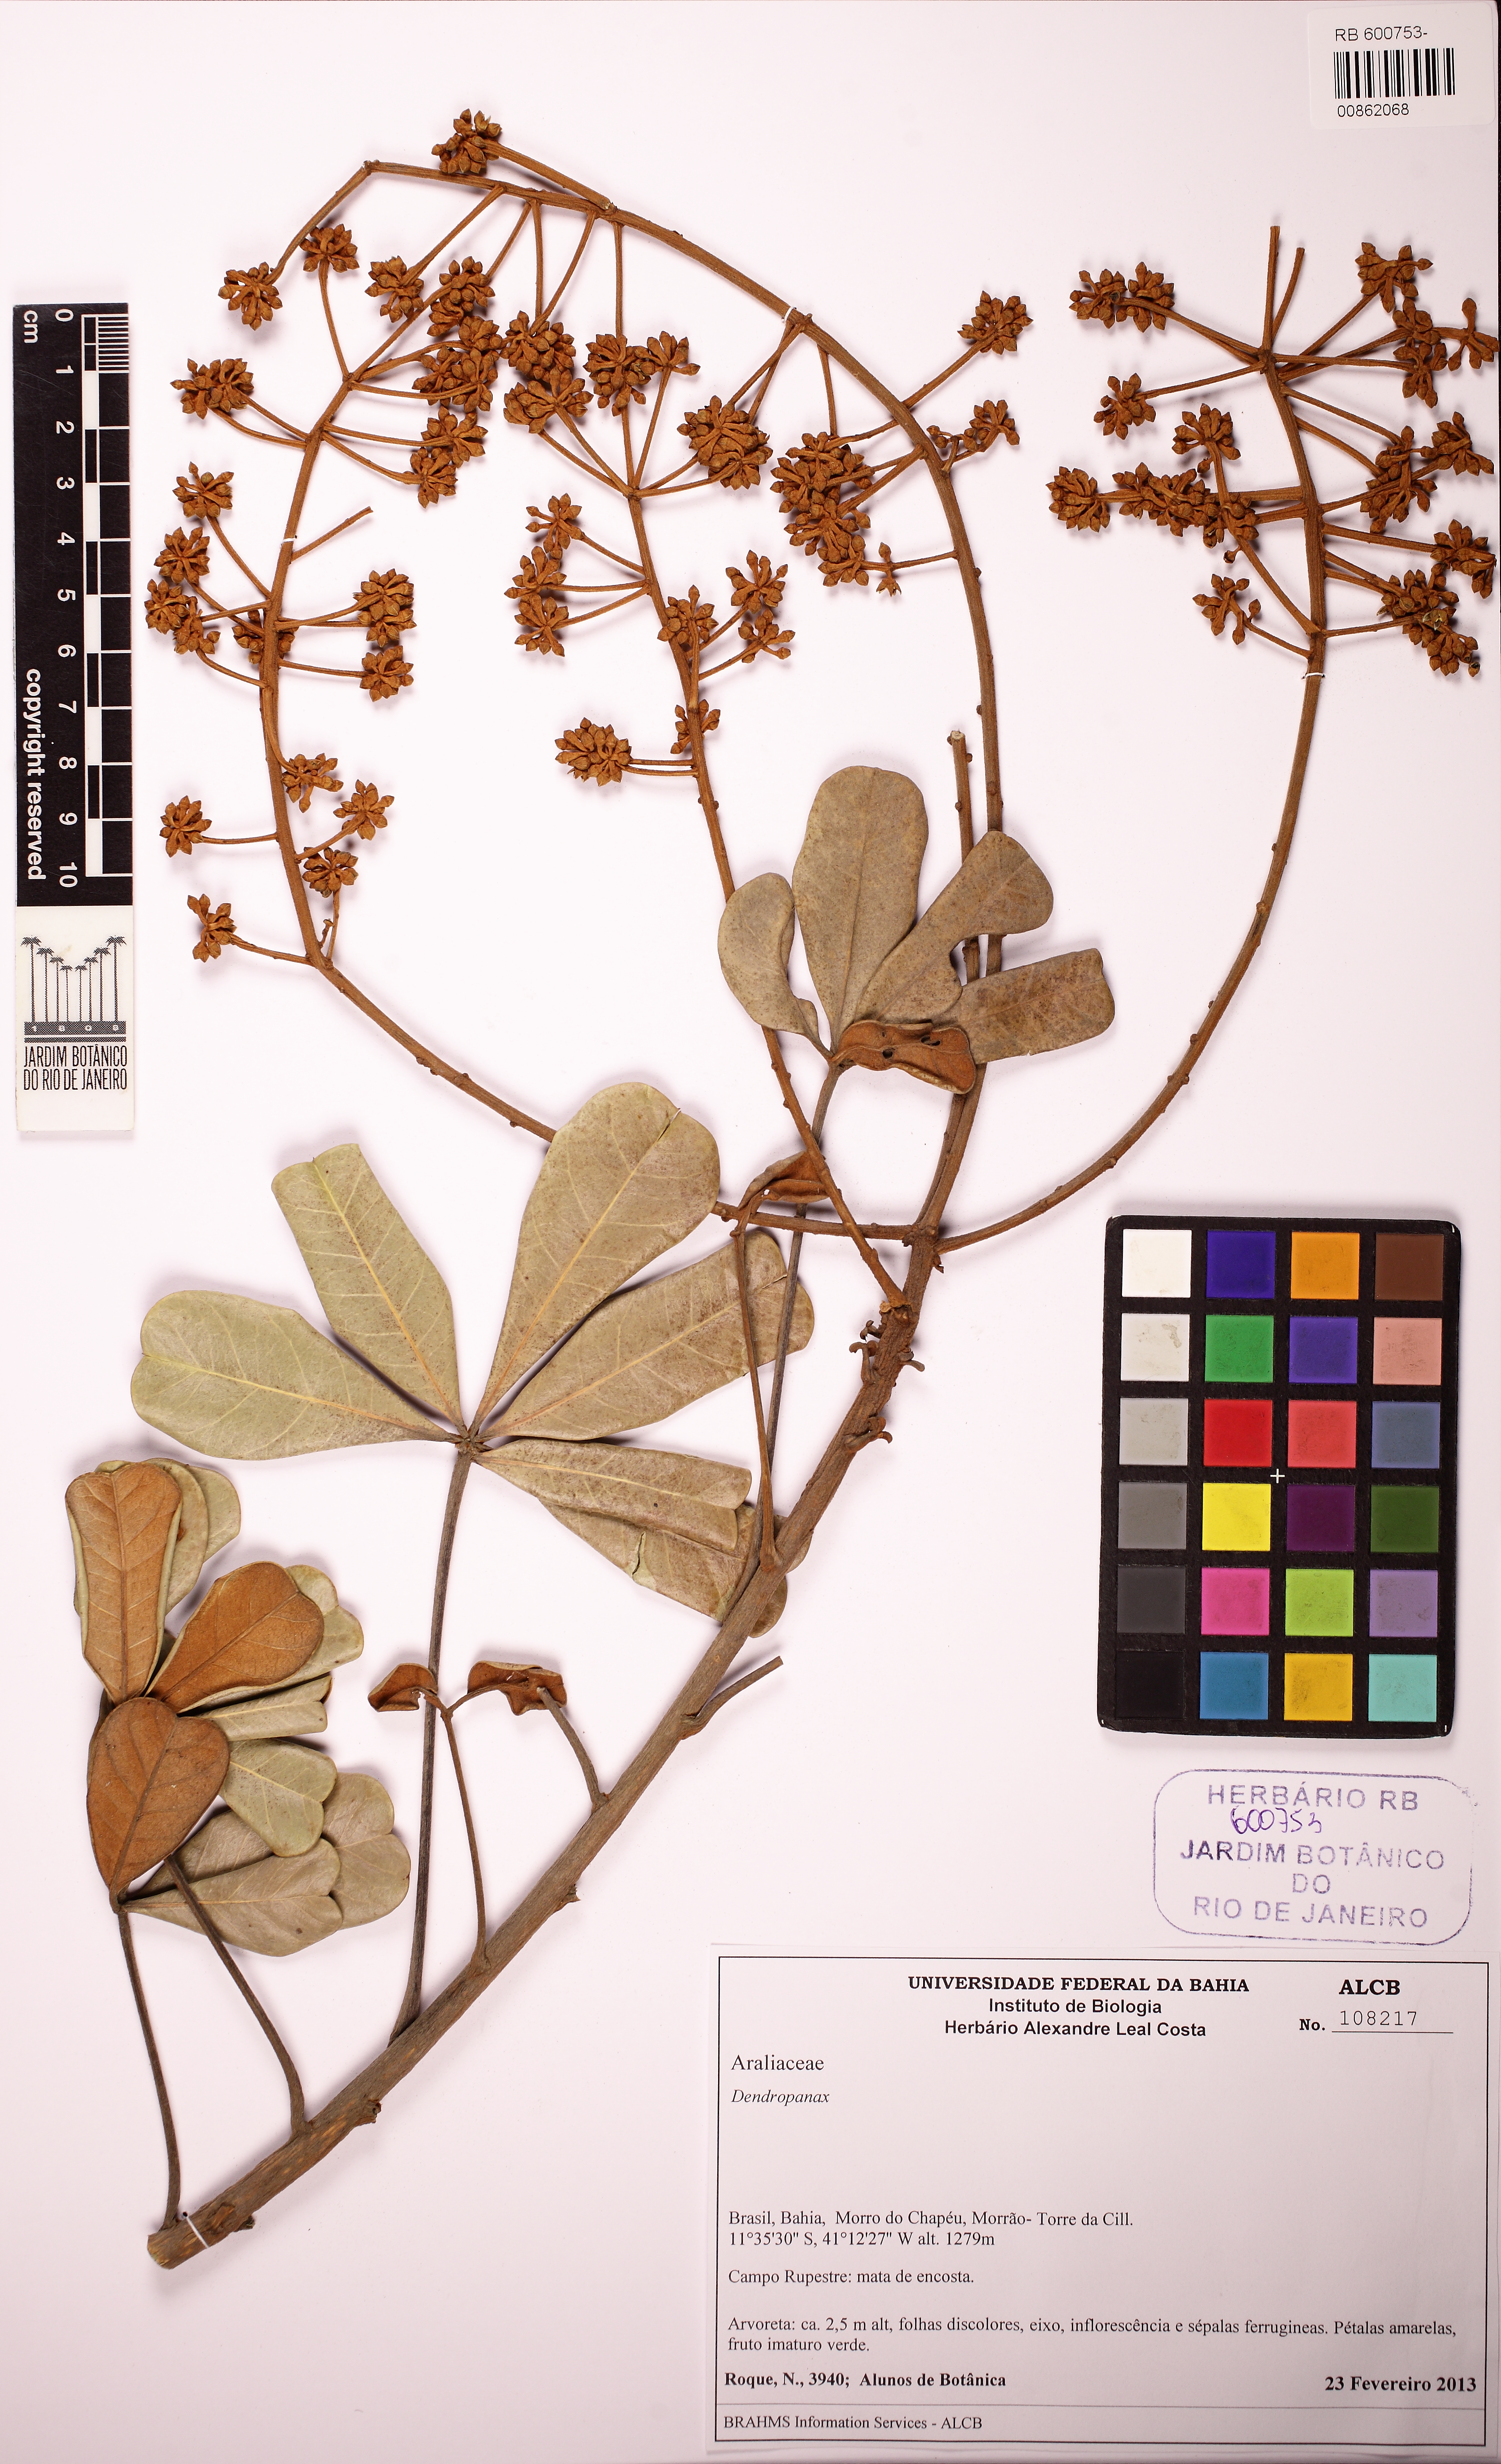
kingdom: Plantae
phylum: Tracheophyta
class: Magnoliopsida
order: Apiales
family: Araliaceae
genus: Didymopanax
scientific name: Didymopanax vinosus
